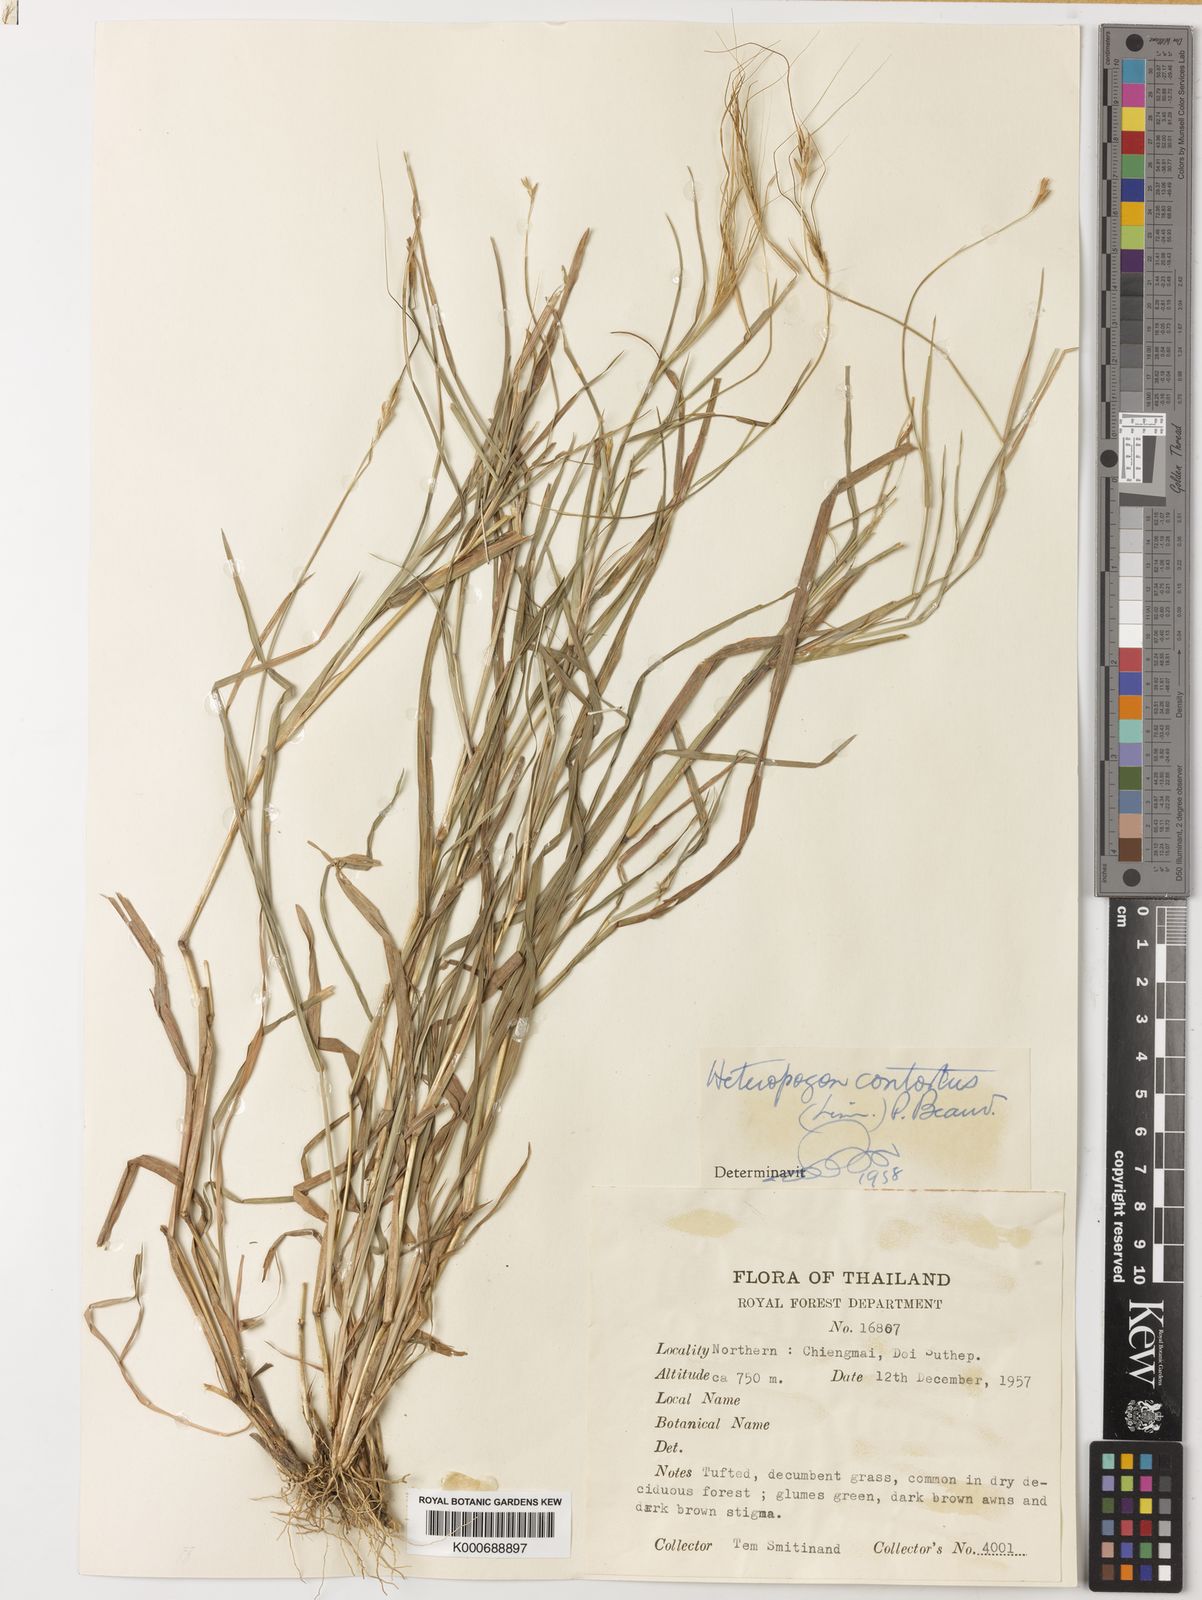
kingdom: Plantae
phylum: Tracheophyta
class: Liliopsida
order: Poales
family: Poaceae
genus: Heteropogon
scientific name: Heteropogon contortus
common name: Tanglehead
